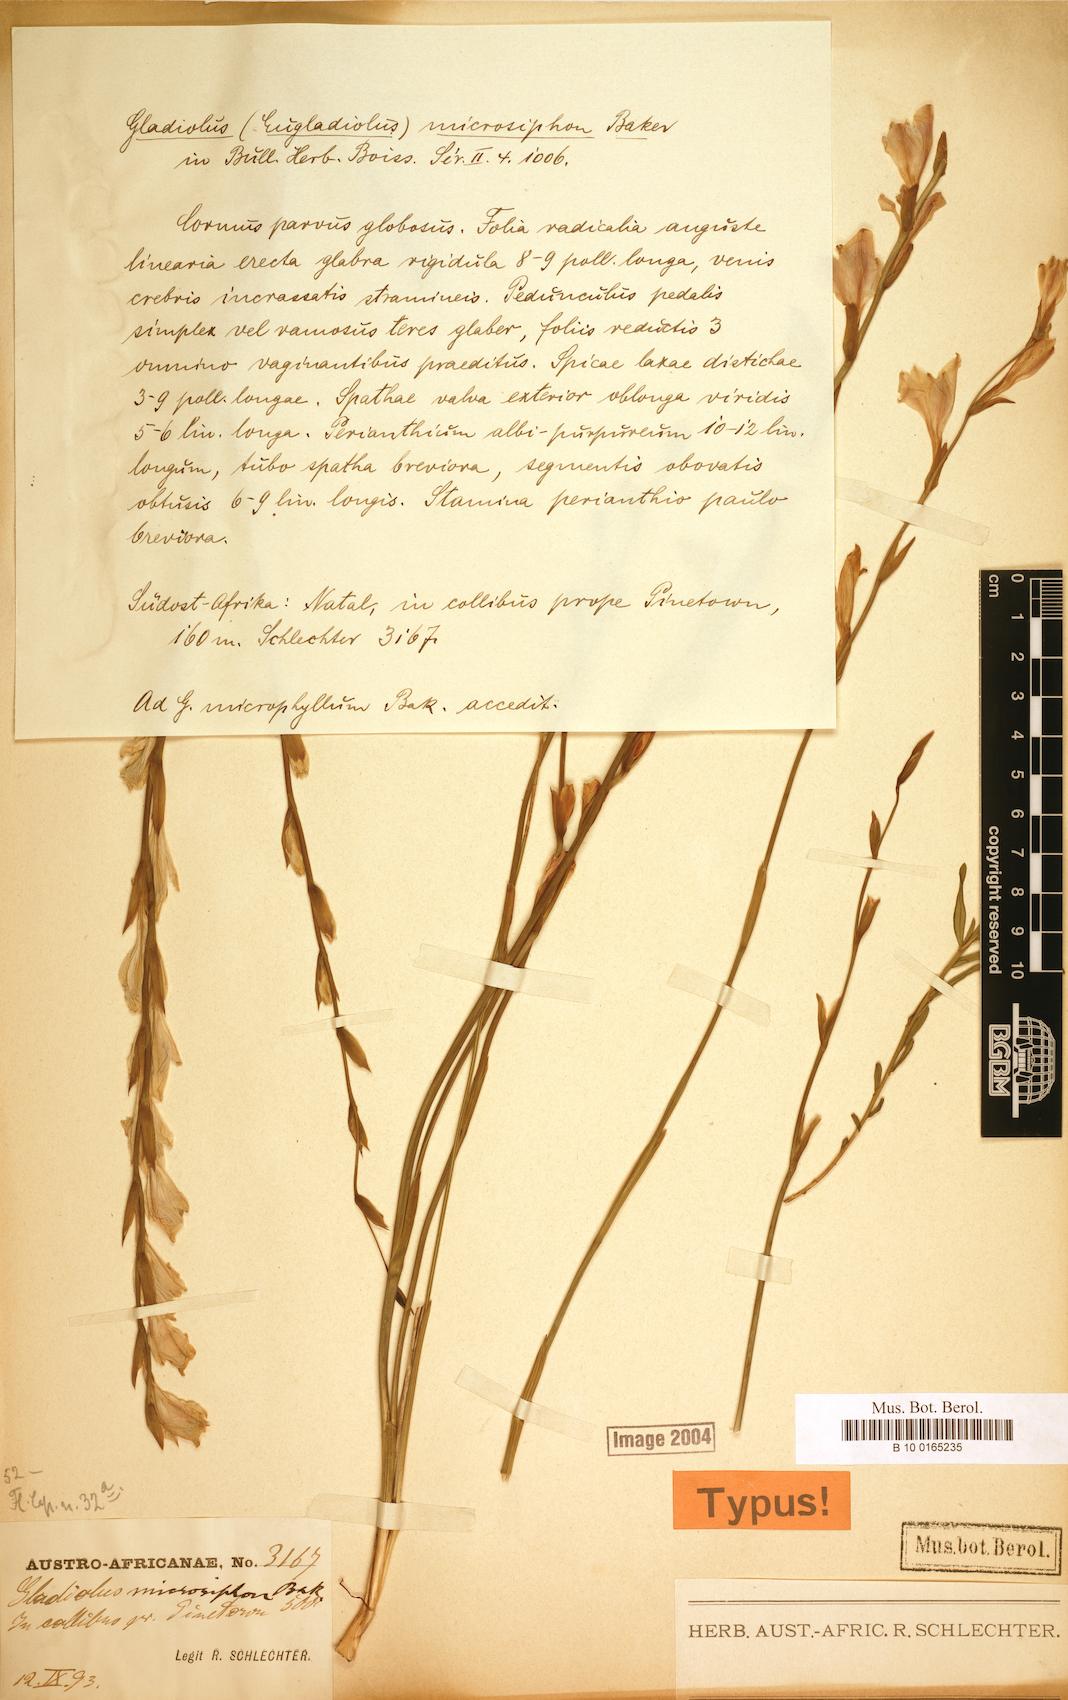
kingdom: Plantae
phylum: Tracheophyta
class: Liliopsida
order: Asparagales
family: Iridaceae
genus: Gladiolus
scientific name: Gladiolus inandensis
